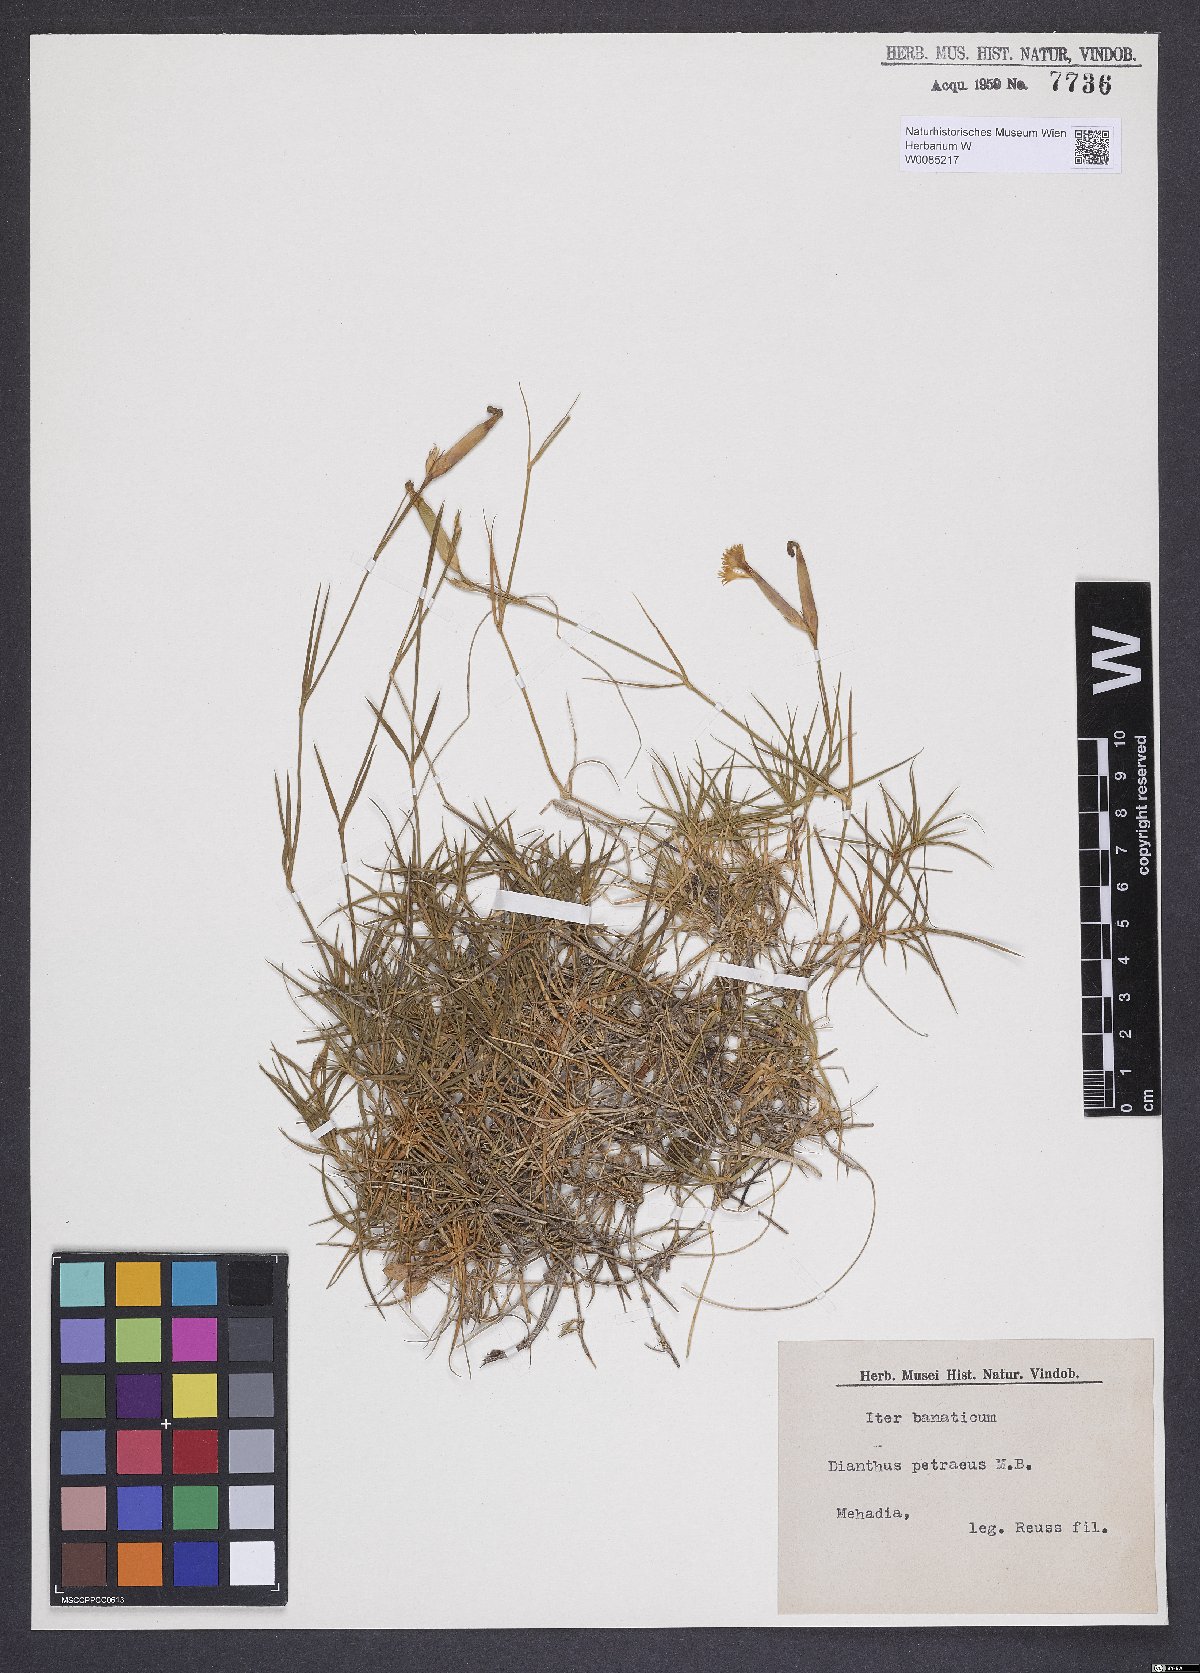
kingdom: Plantae
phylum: Tracheophyta
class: Magnoliopsida
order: Caryophyllales
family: Caryophyllaceae
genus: Dianthus
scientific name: Dianthus petraeus
